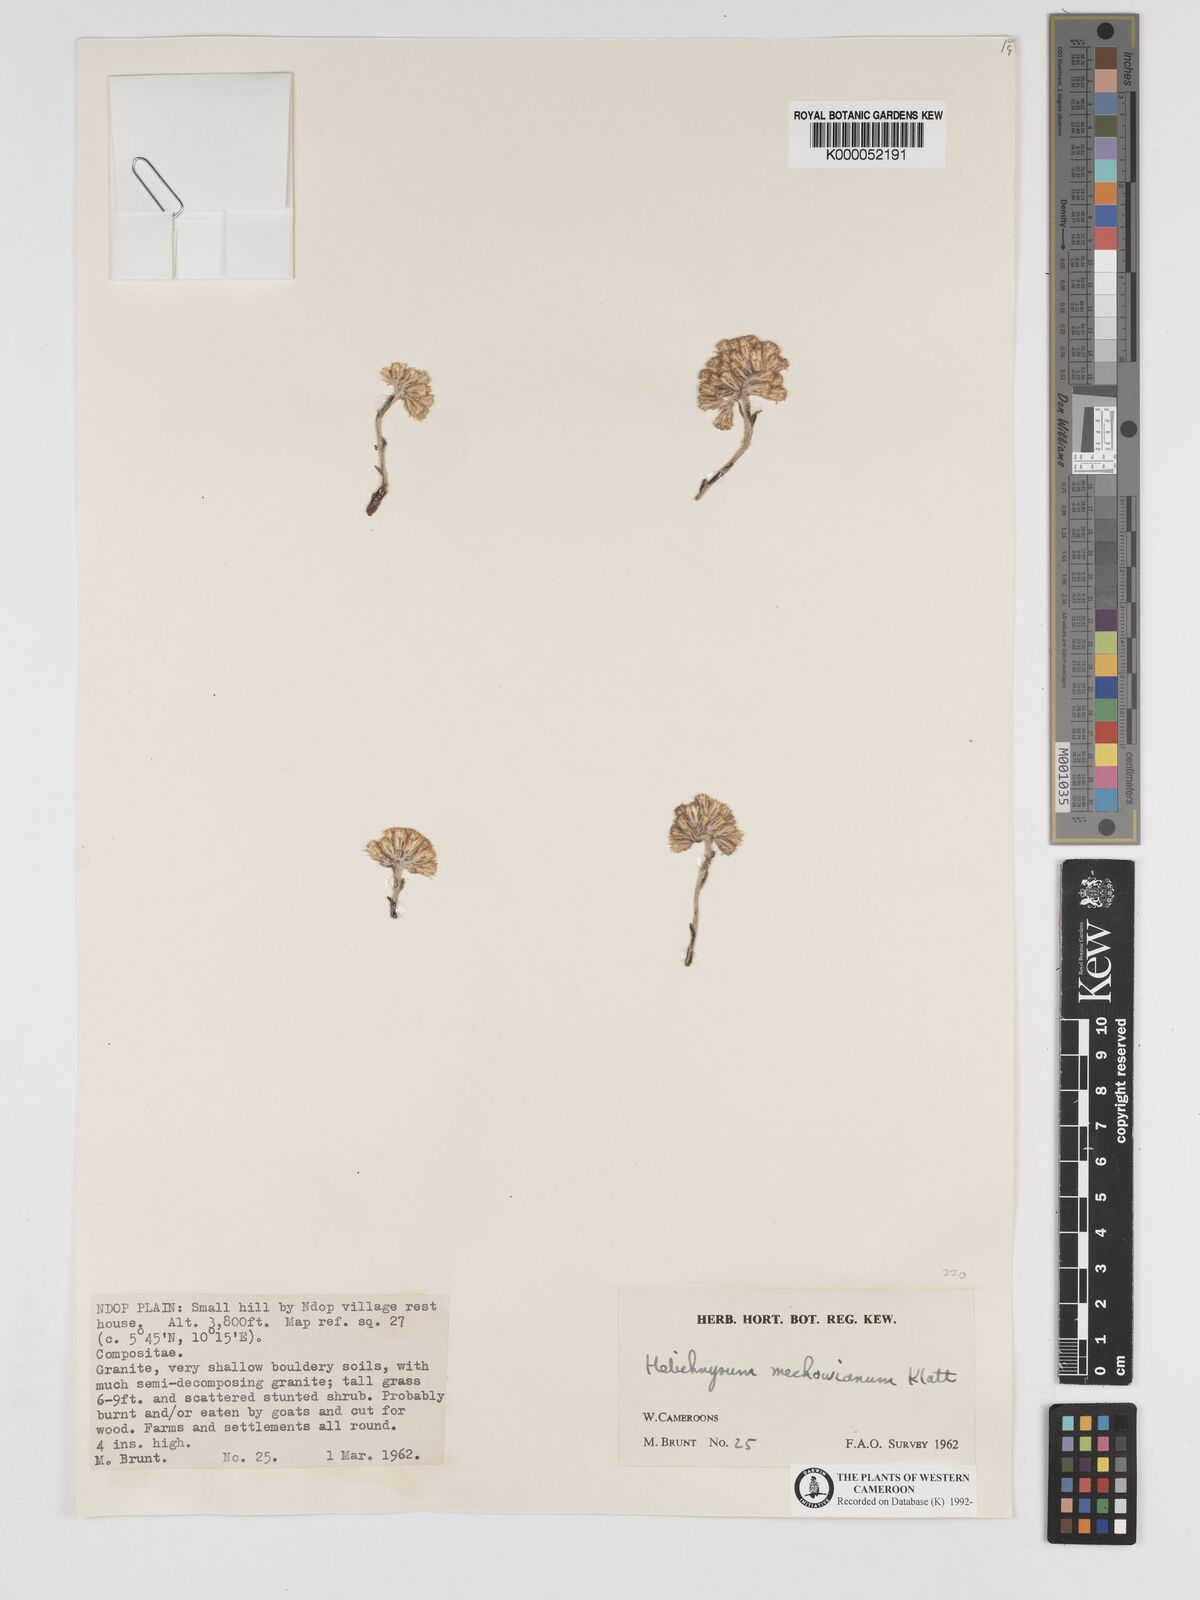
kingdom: Plantae
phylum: Tracheophyta
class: Magnoliopsida
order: Asterales
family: Asteraceae
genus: Helichrysum
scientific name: Helichrysum mechowianum
